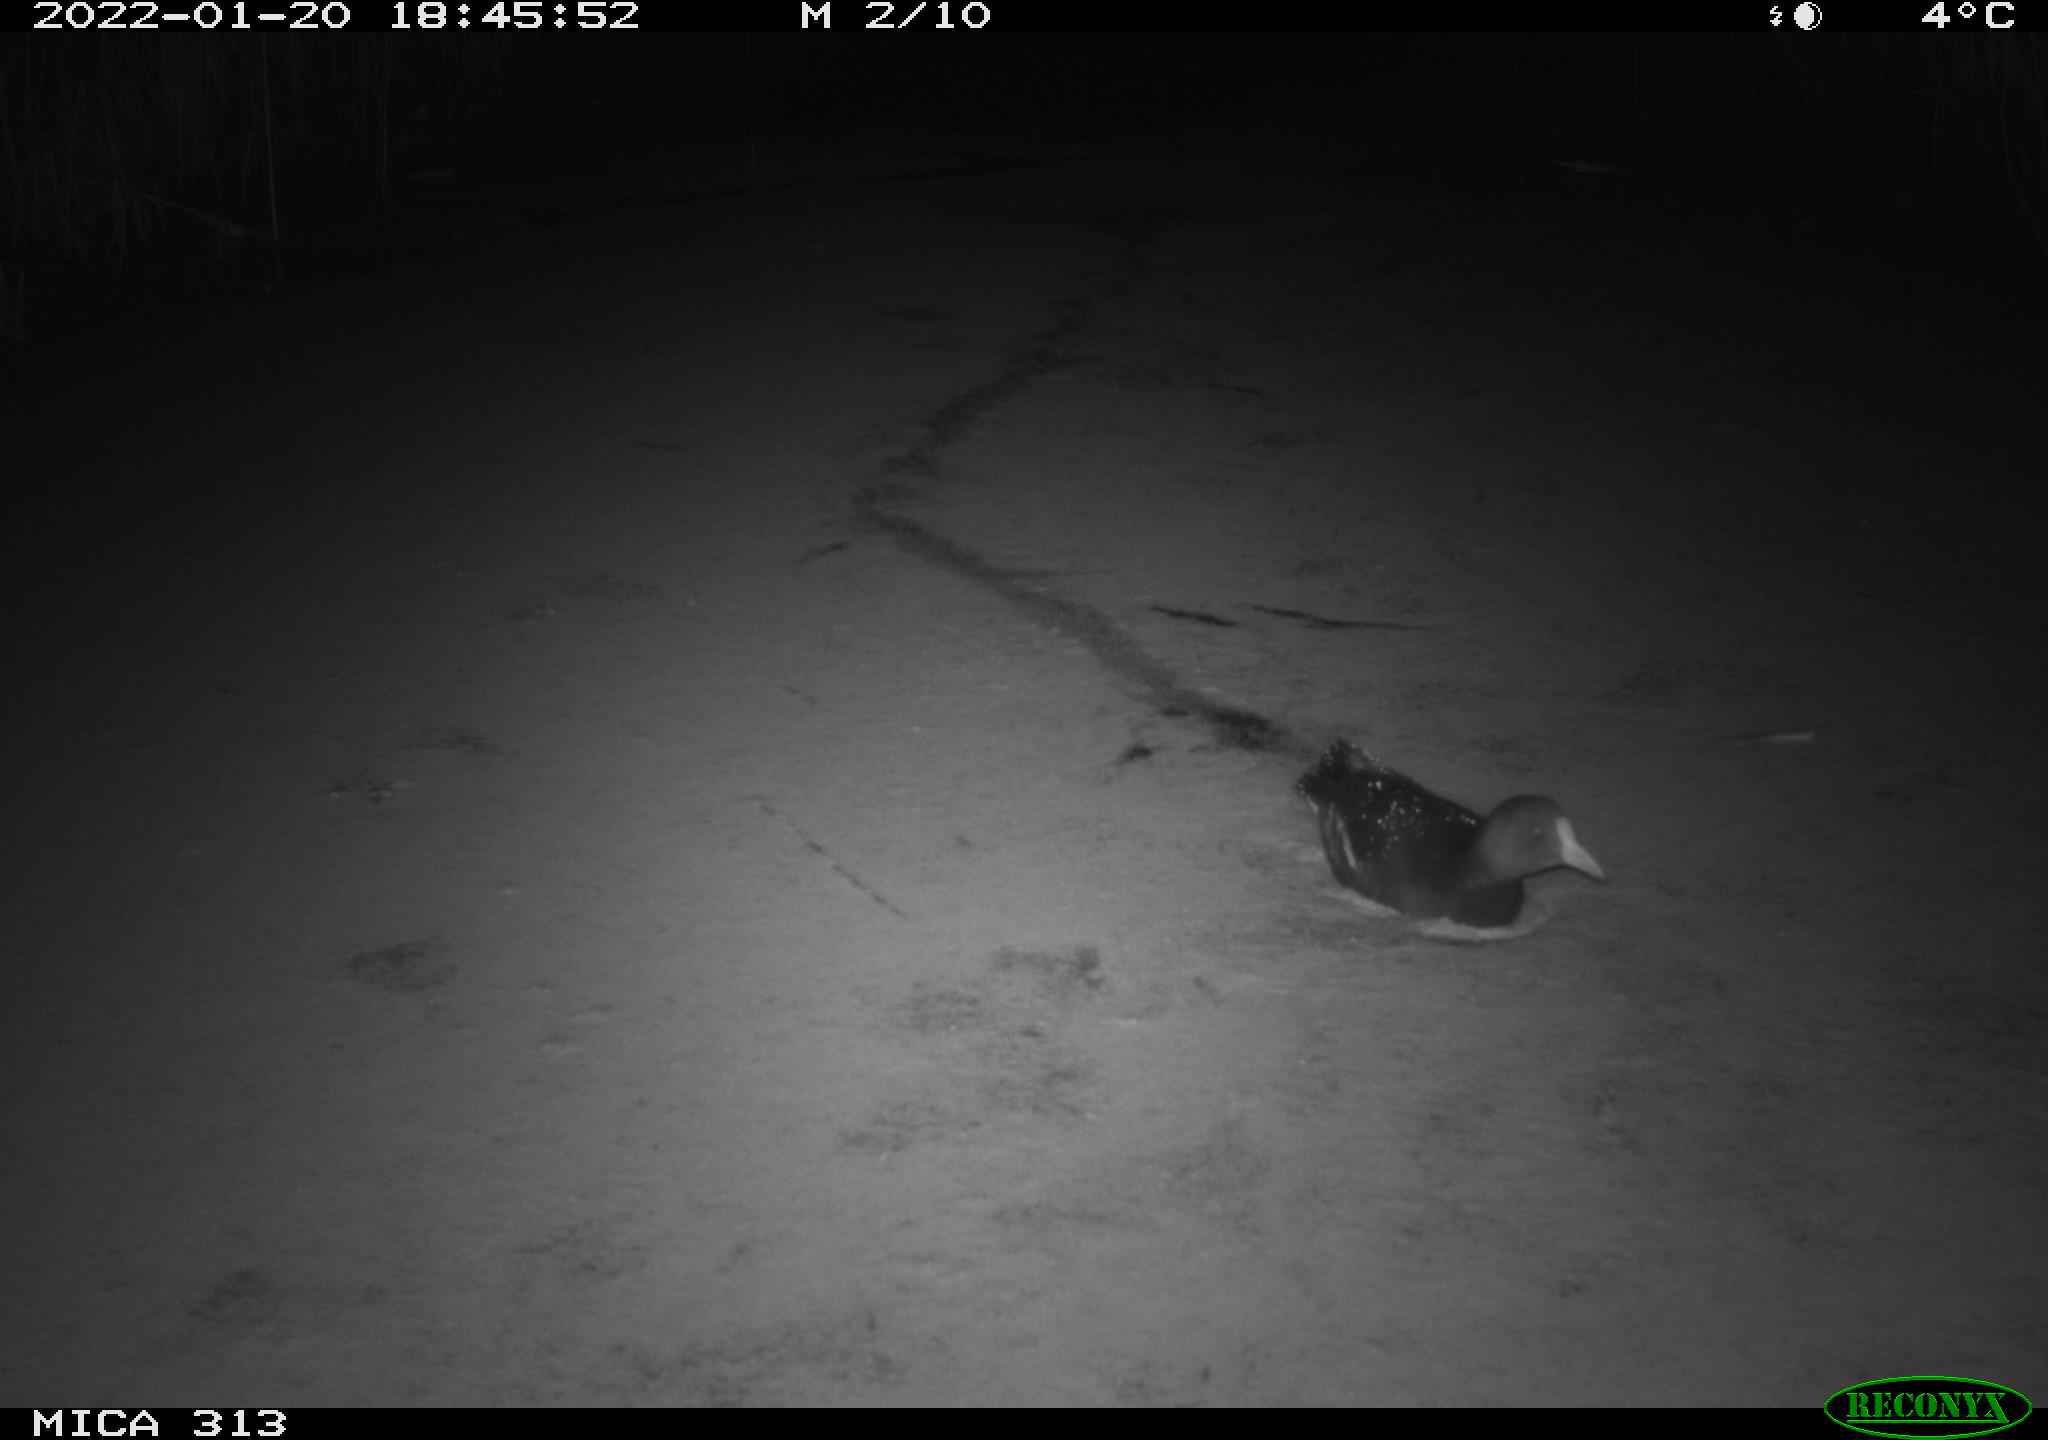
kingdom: Animalia
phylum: Chordata
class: Aves
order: Gruiformes
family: Rallidae
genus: Fulica
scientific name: Fulica atra
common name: Eurasian coot
